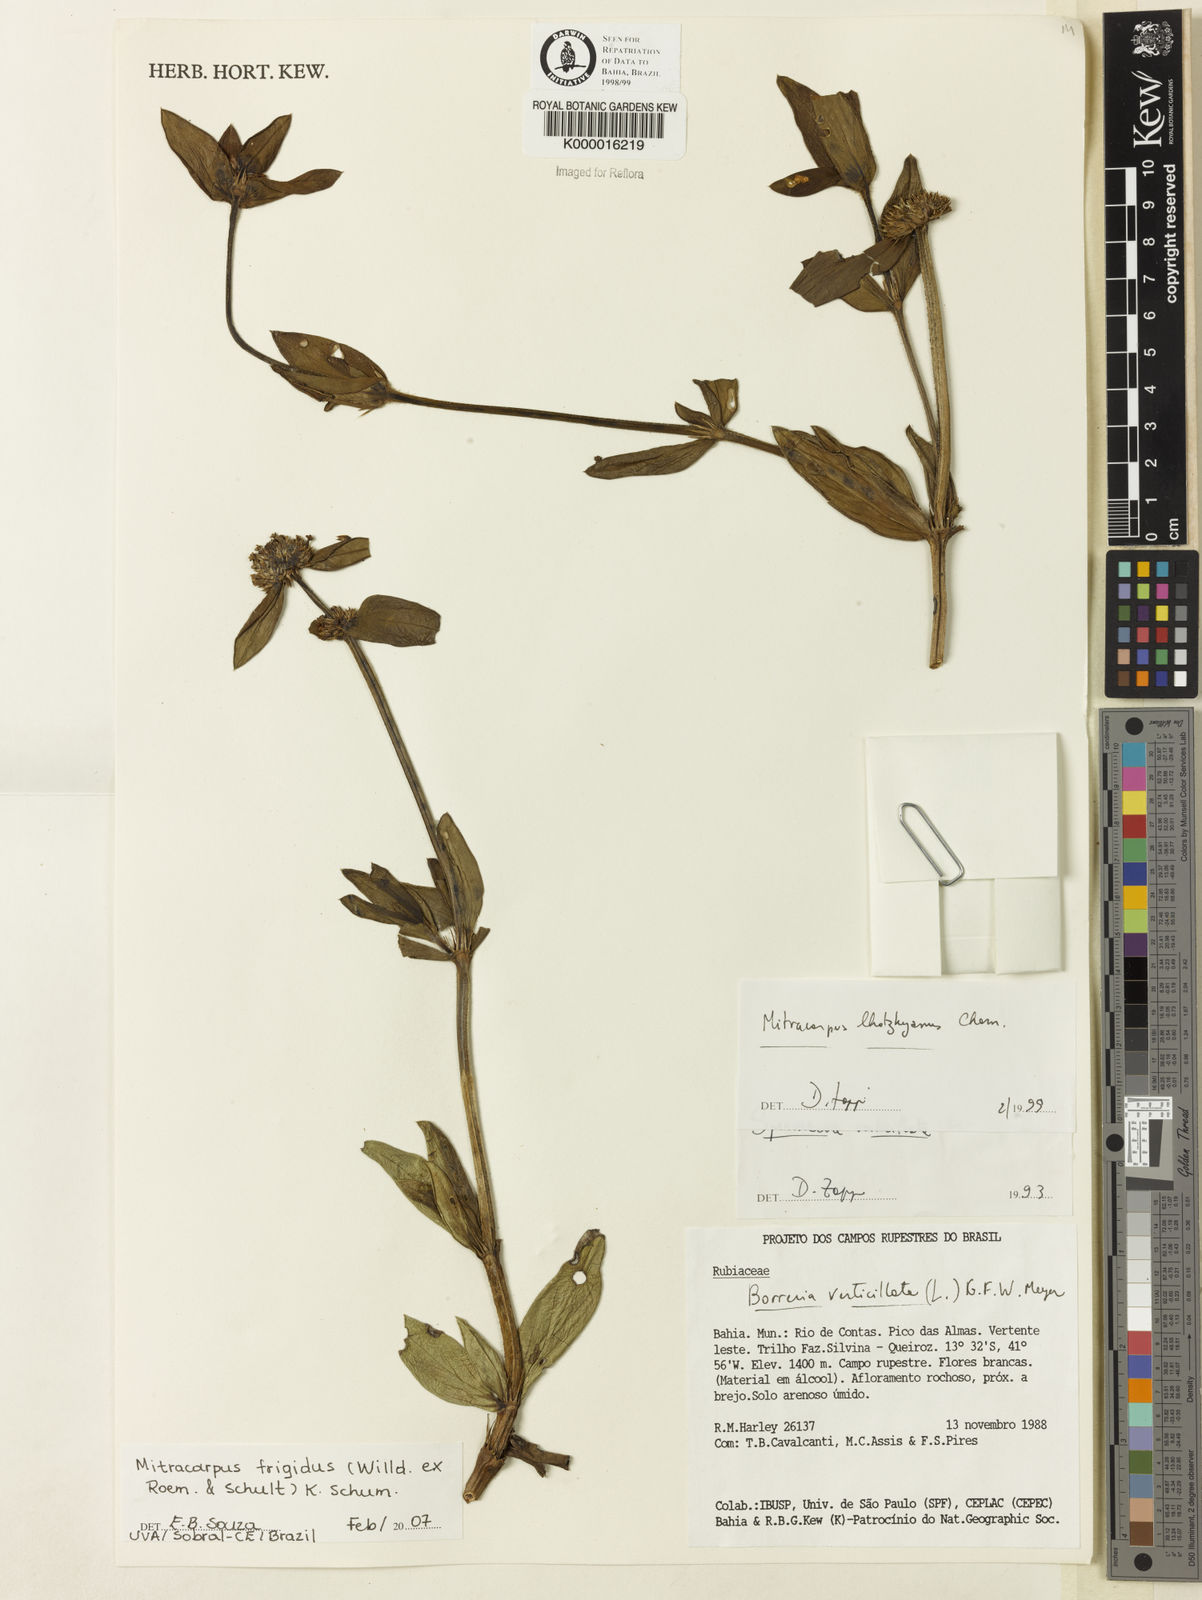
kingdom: Plantae
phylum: Tracheophyta
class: Magnoliopsida
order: Gentianales
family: Rubiaceae
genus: Mitracarpus
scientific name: Mitracarpus frigidus
